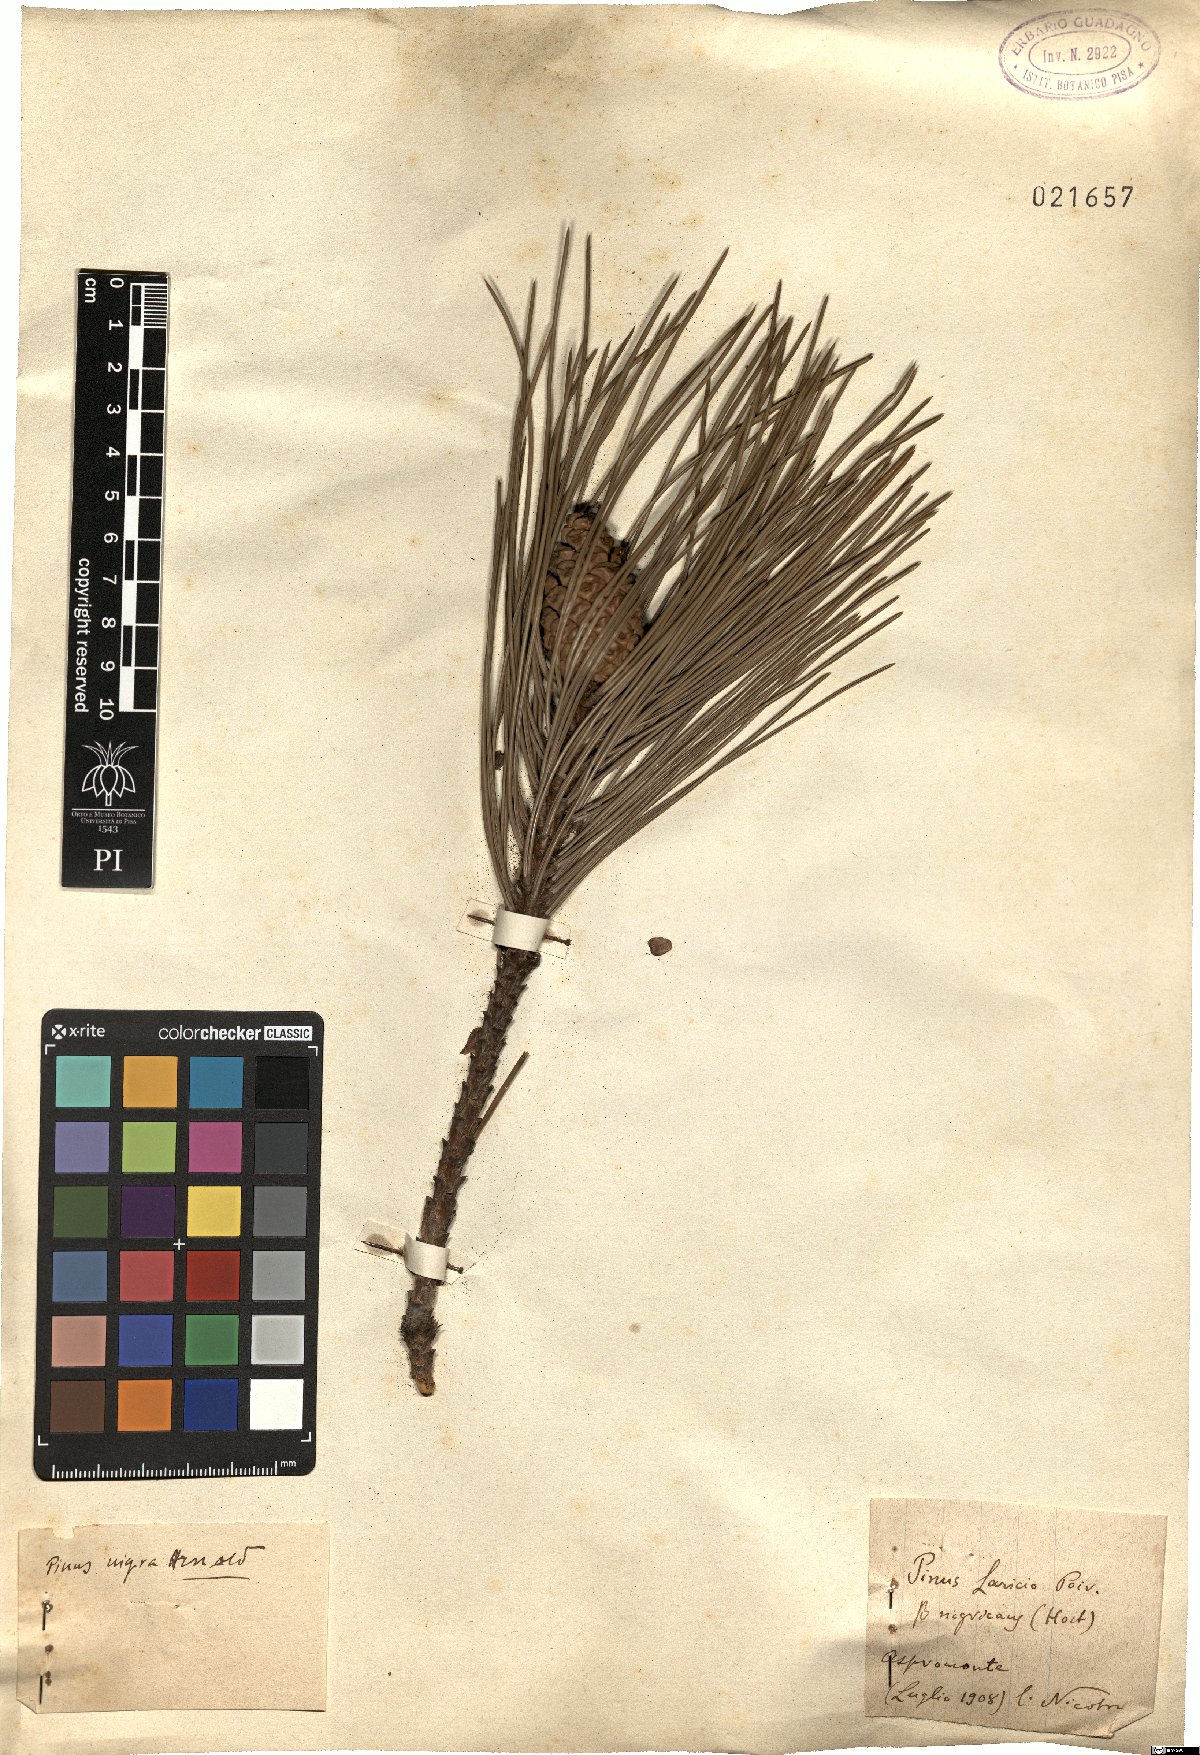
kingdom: Plantae
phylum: Tracheophyta
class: Pinopsida
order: Pinales
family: Pinaceae
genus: Pinus
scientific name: Pinus nigra
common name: Austrian pine
